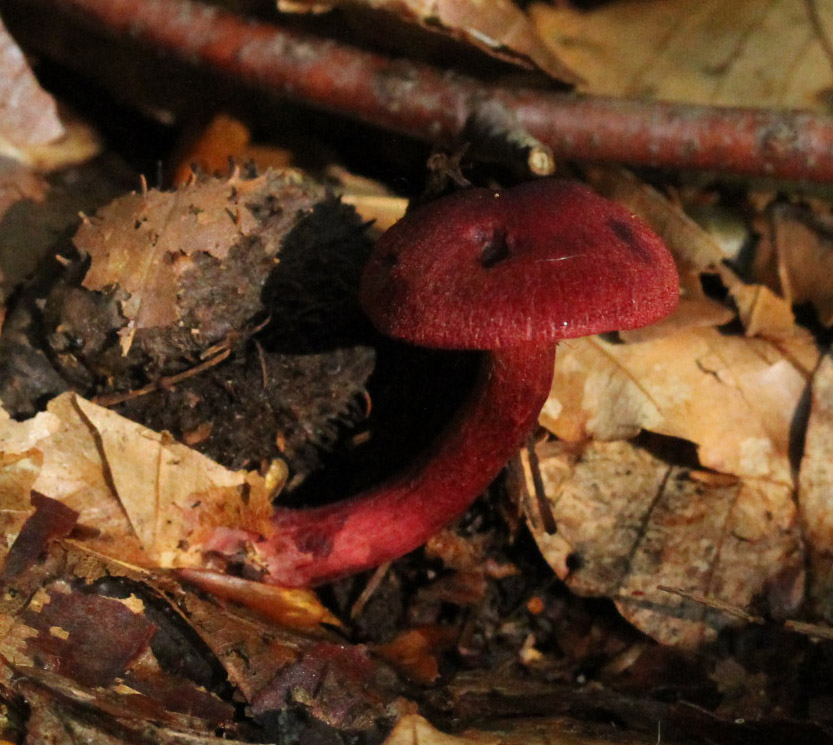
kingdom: Fungi
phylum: Basidiomycota
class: Agaricomycetes
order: Agaricales
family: Cortinariaceae
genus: Cortinarius
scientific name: Cortinarius sanguineus
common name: blodrød slørhat
